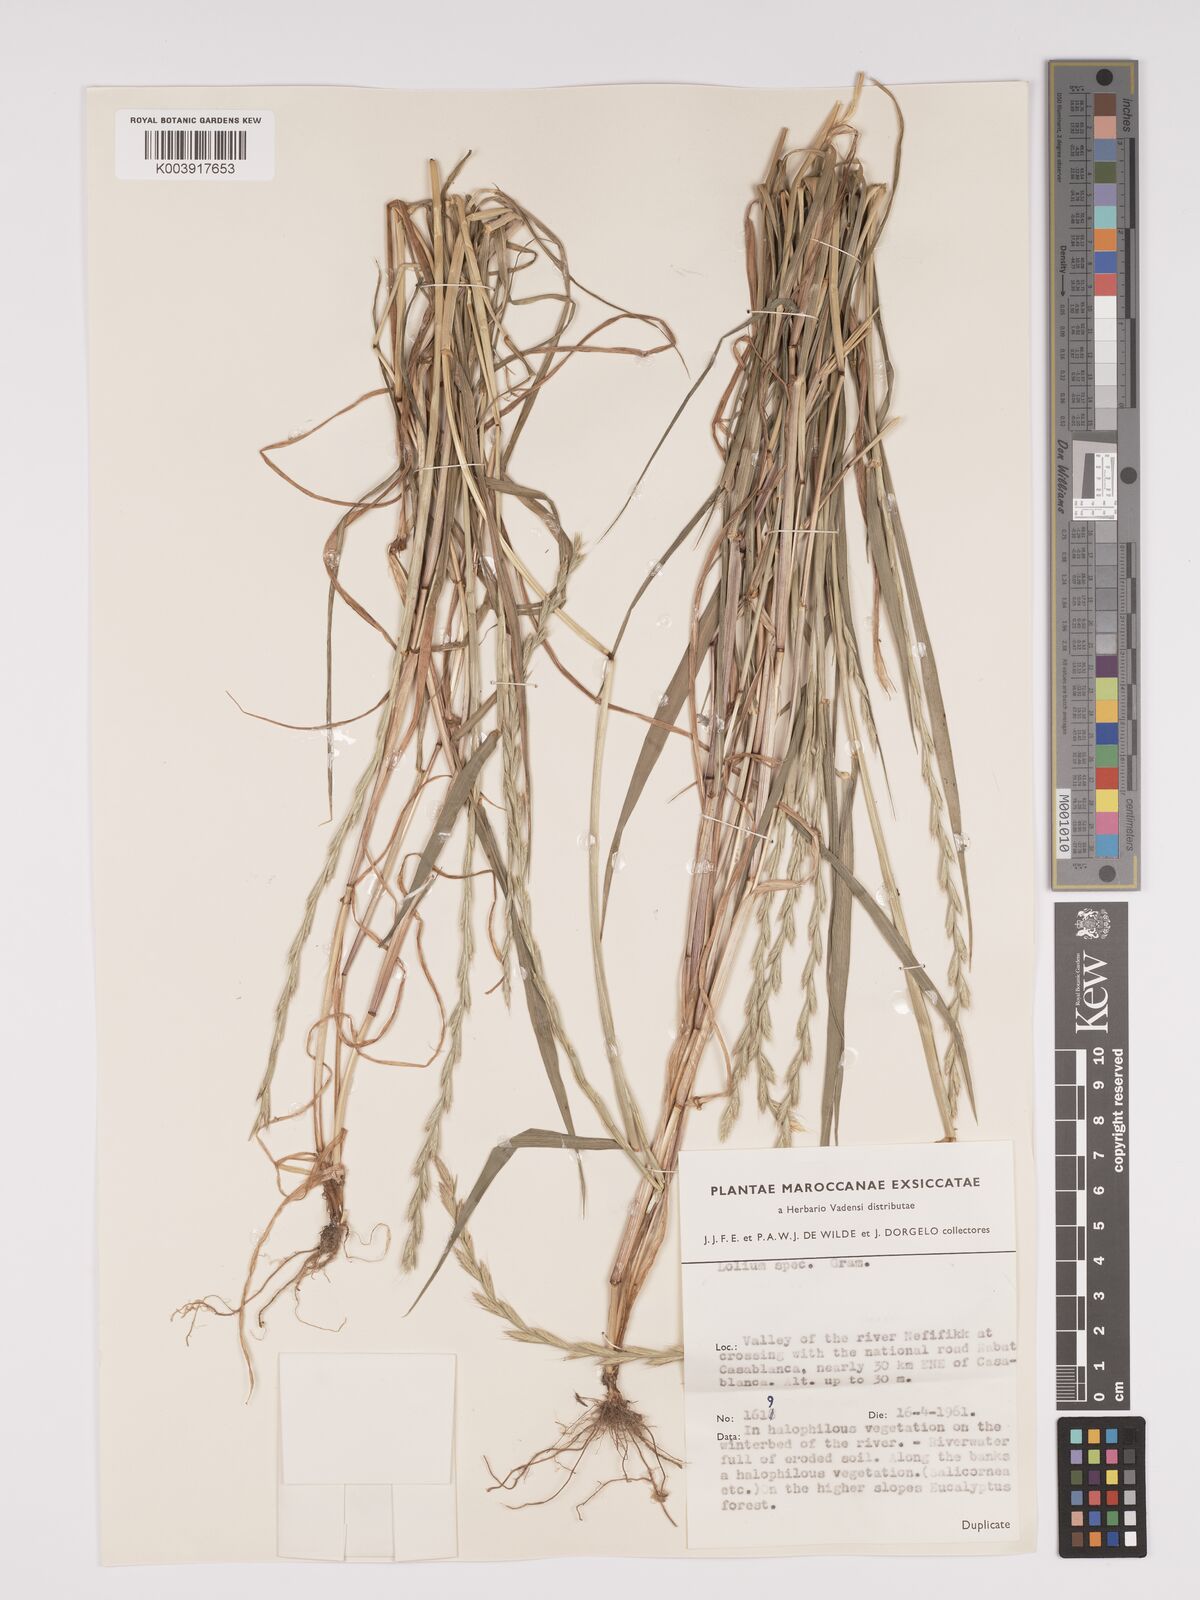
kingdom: Plantae
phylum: Tracheophyta
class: Liliopsida
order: Poales
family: Poaceae
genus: Lolium
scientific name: Lolium multiflorum
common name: Annual ryegrass
